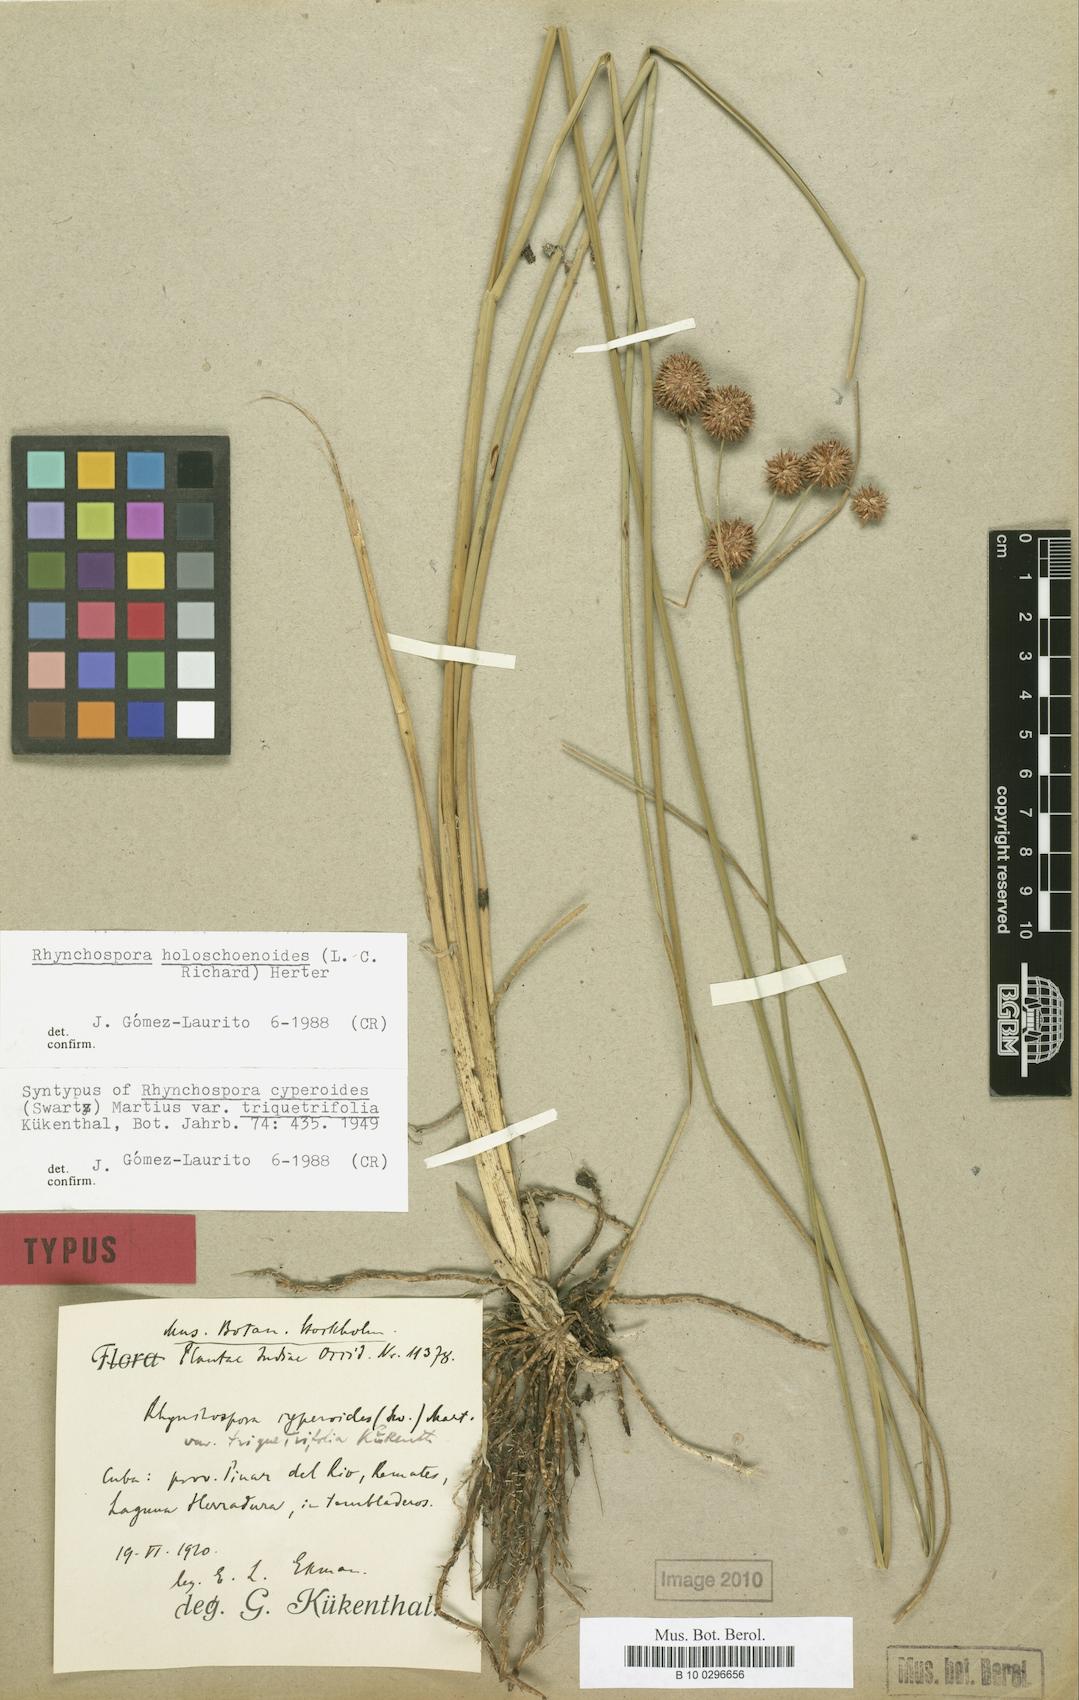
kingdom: Plantae
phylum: Tracheophyta
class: Liliopsida
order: Poales
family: Cyperaceae
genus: Rhynchospora
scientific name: Rhynchospora holoschoenoides
